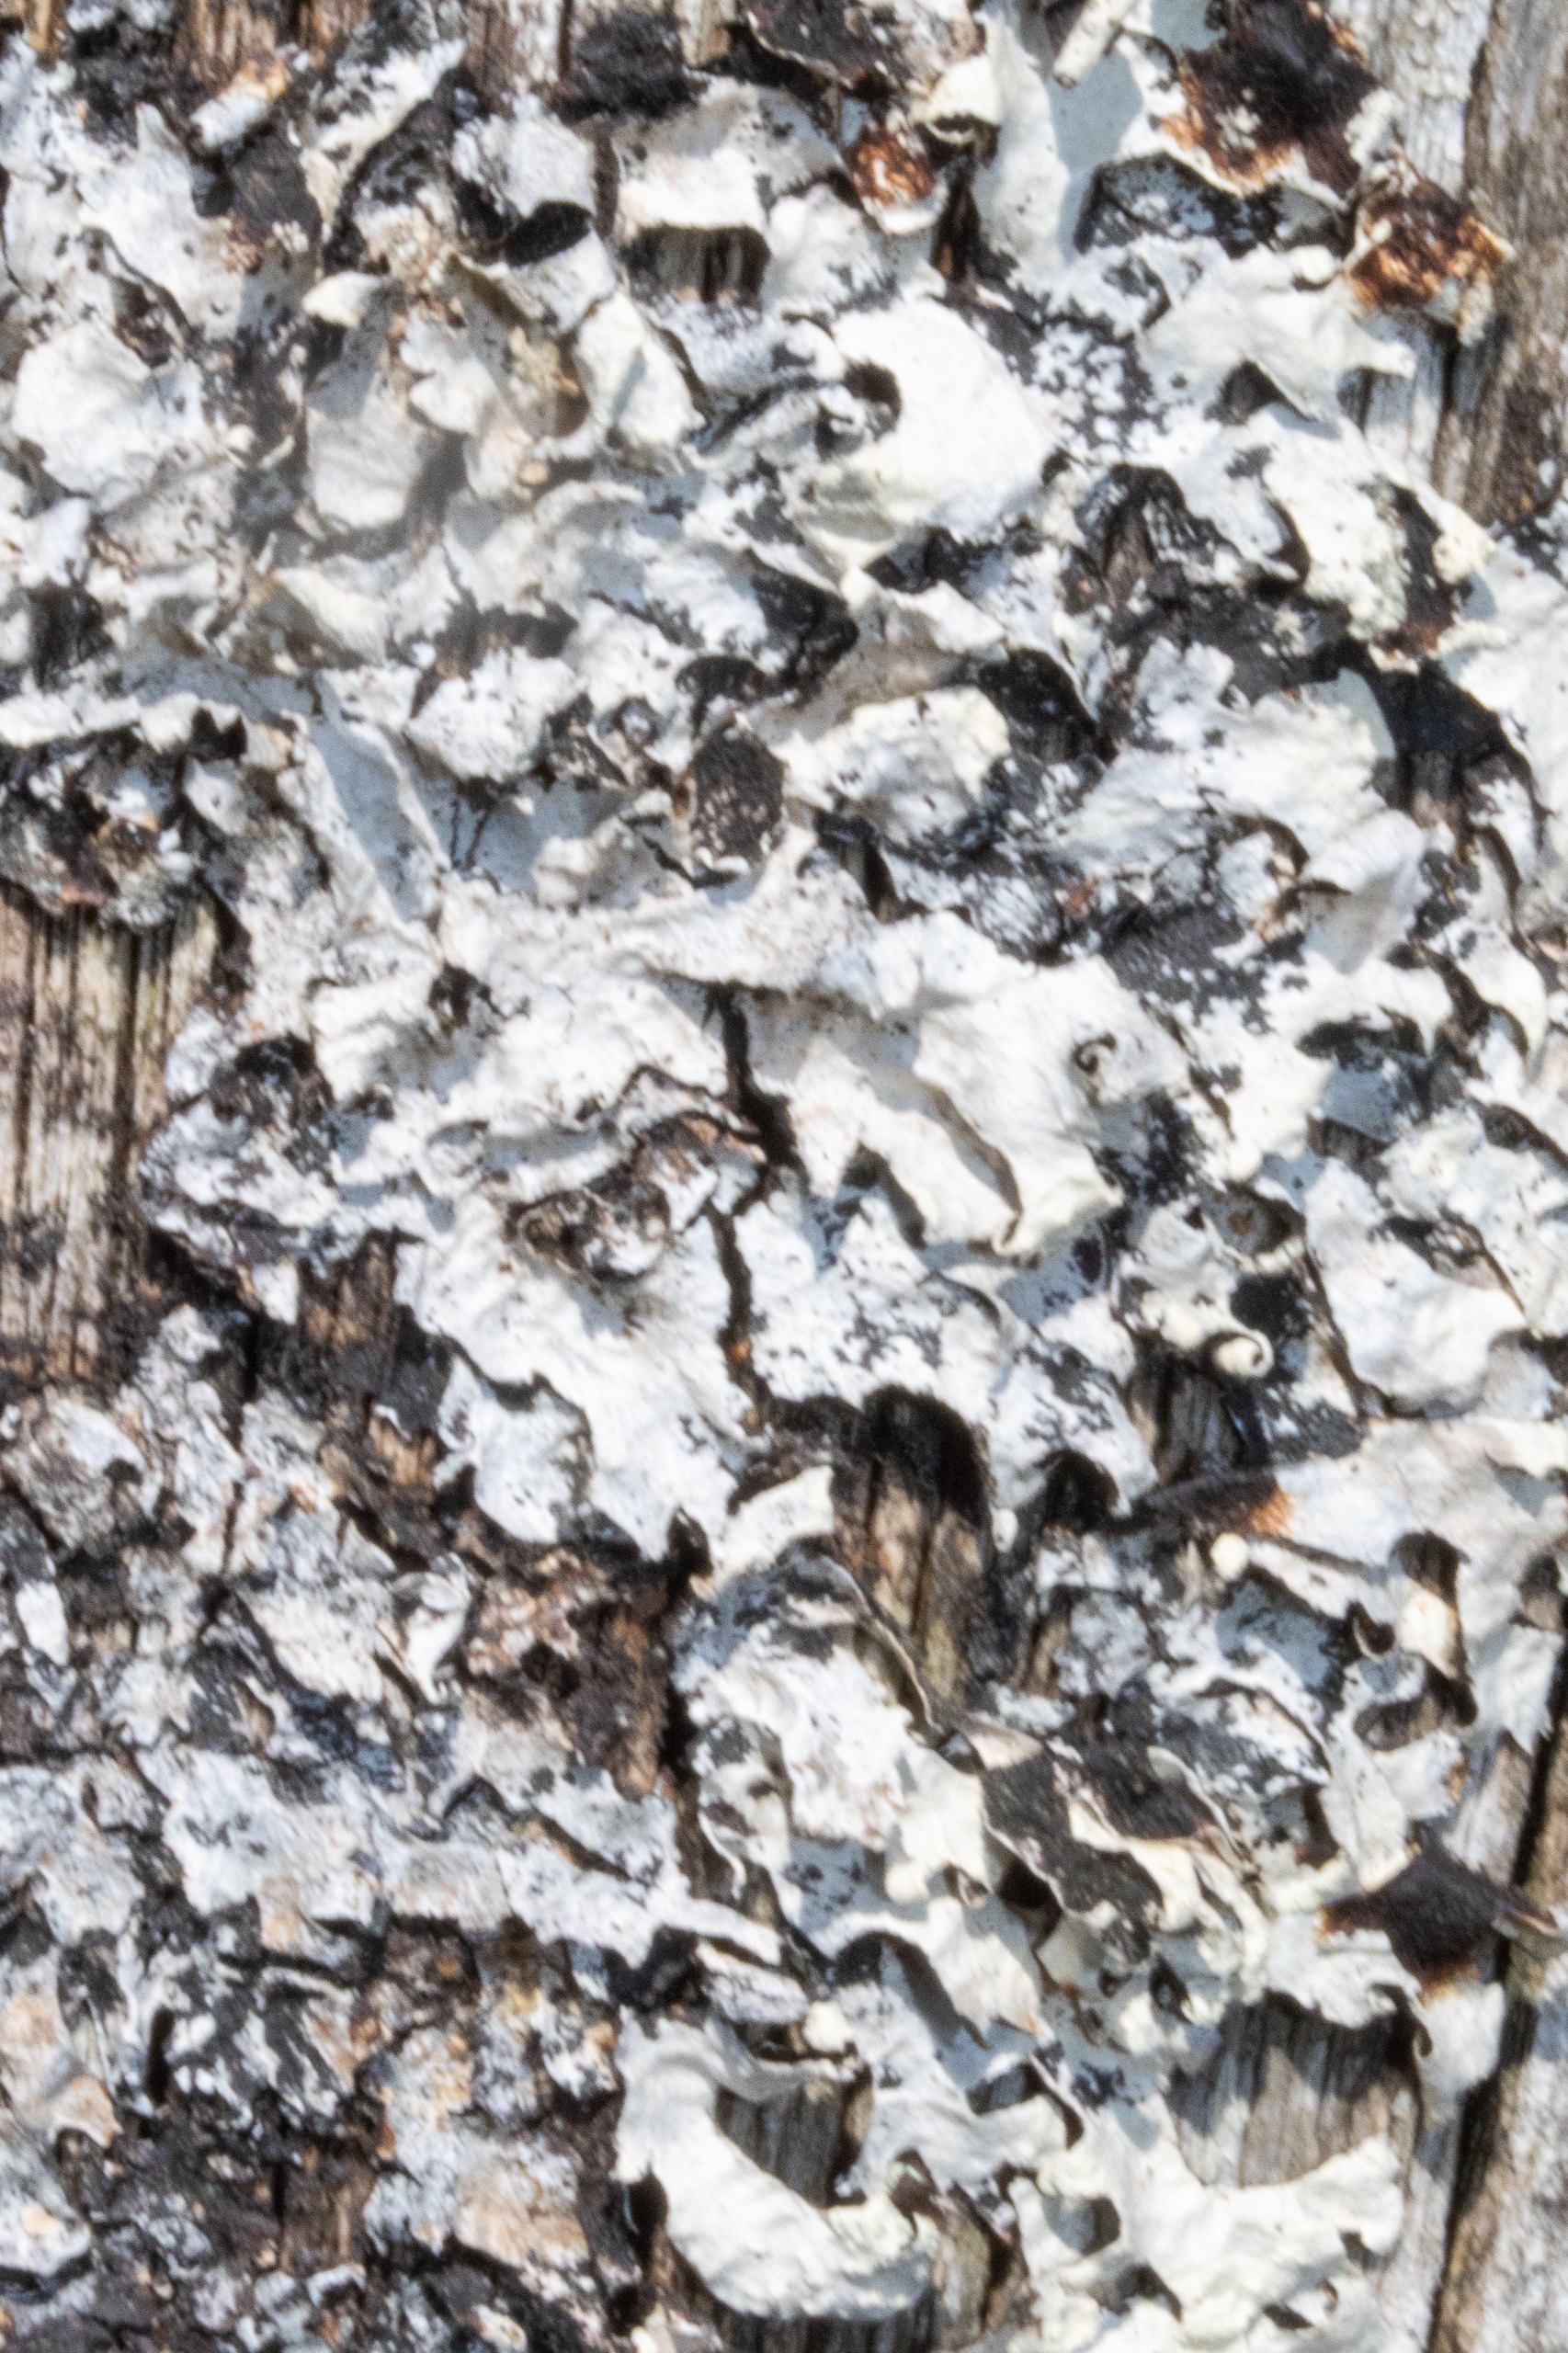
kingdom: Fungi
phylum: Ascomycota
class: Lecanoromycetes
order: Lecanorales
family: Parmeliaceae
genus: Parmelia
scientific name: Parmelia sulcata
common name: Rynket skållav
